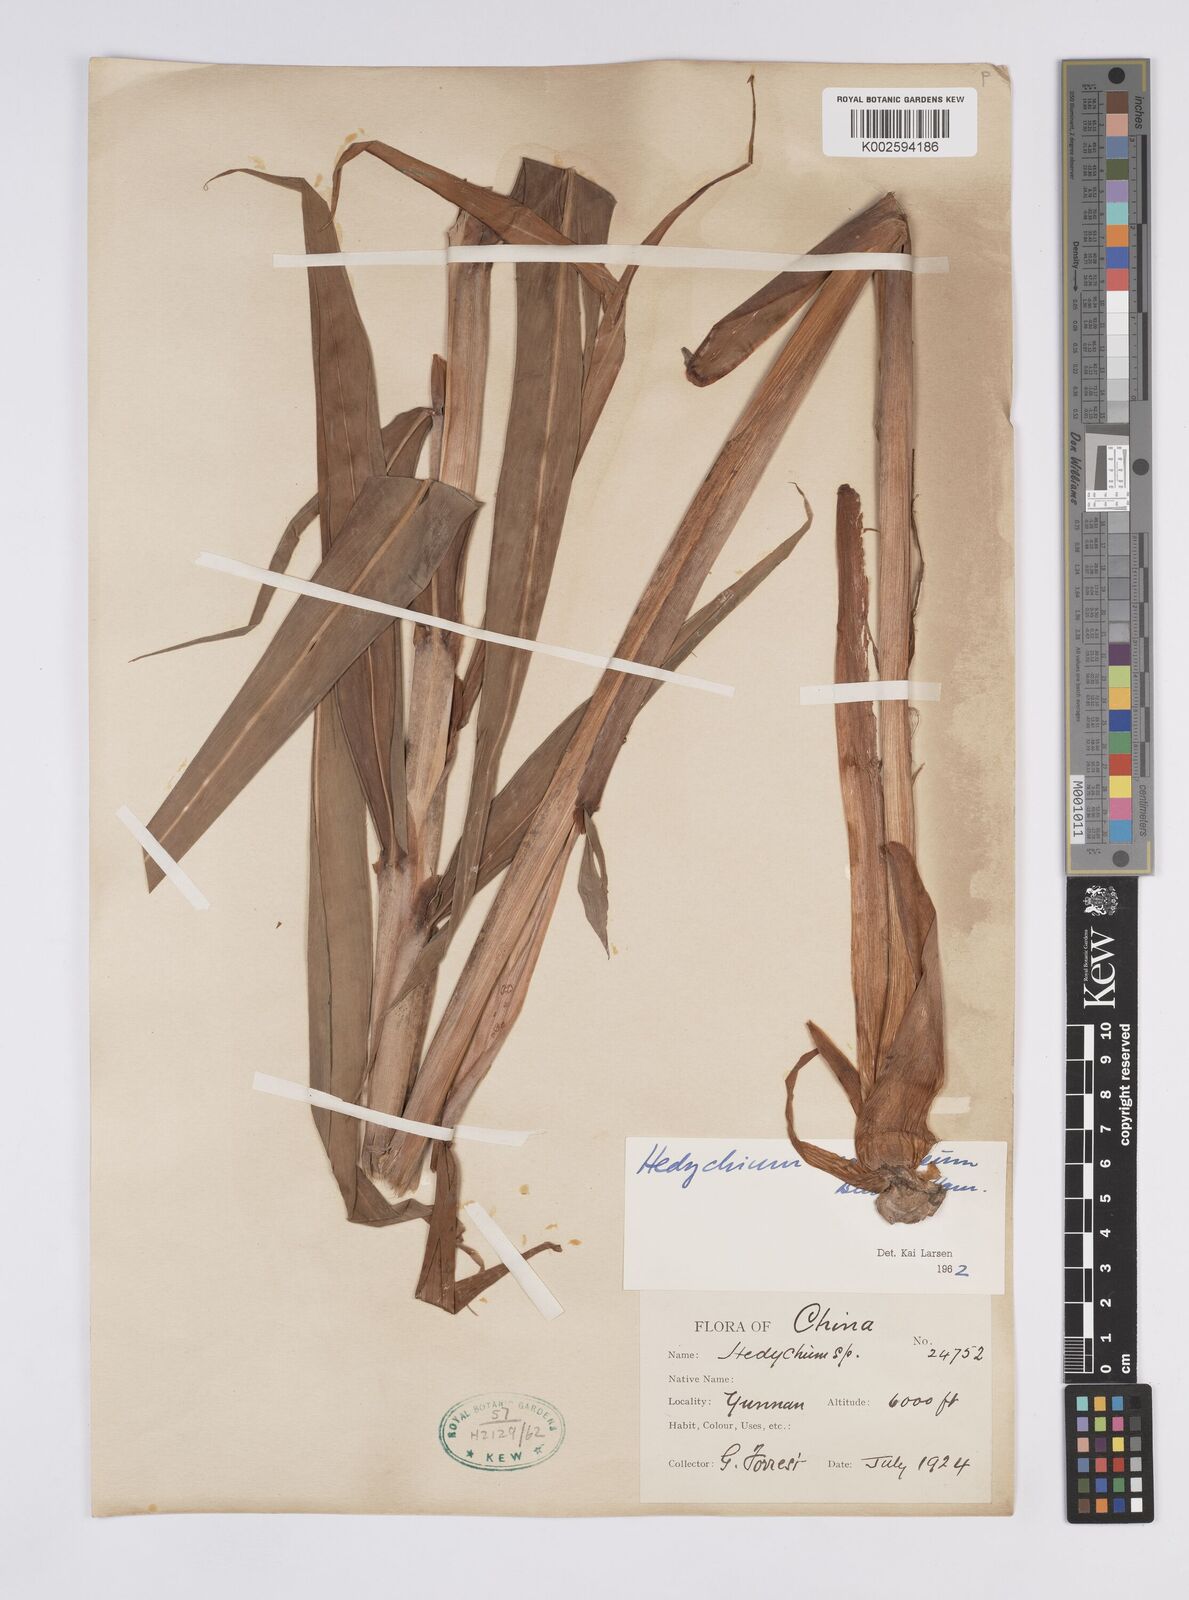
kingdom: Plantae
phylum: Tracheophyta
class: Liliopsida
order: Zingiberales
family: Zingiberaceae
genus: Hedychium
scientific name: Hedychium coccineum
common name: Red ginger-lily
